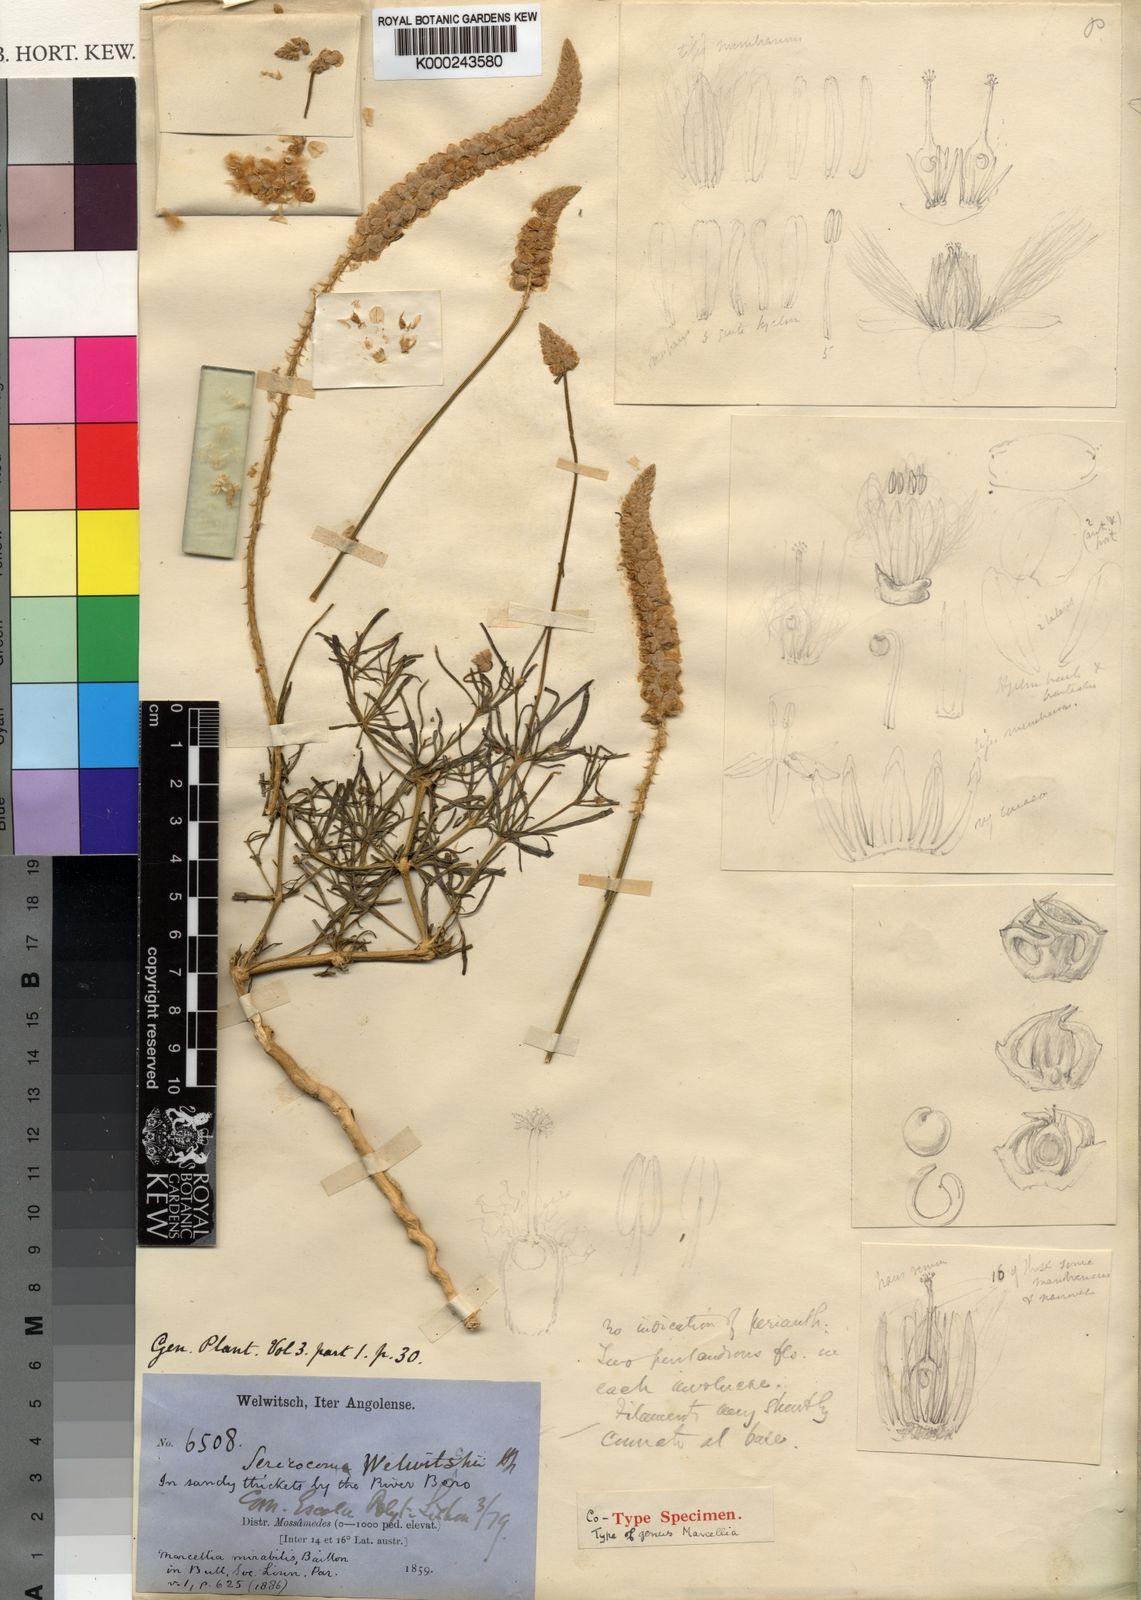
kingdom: Plantae
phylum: Tracheophyta
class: Magnoliopsida
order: Caryophyllales
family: Amaranthaceae
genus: Marcelliopsis
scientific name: Marcelliopsis welwitschii
